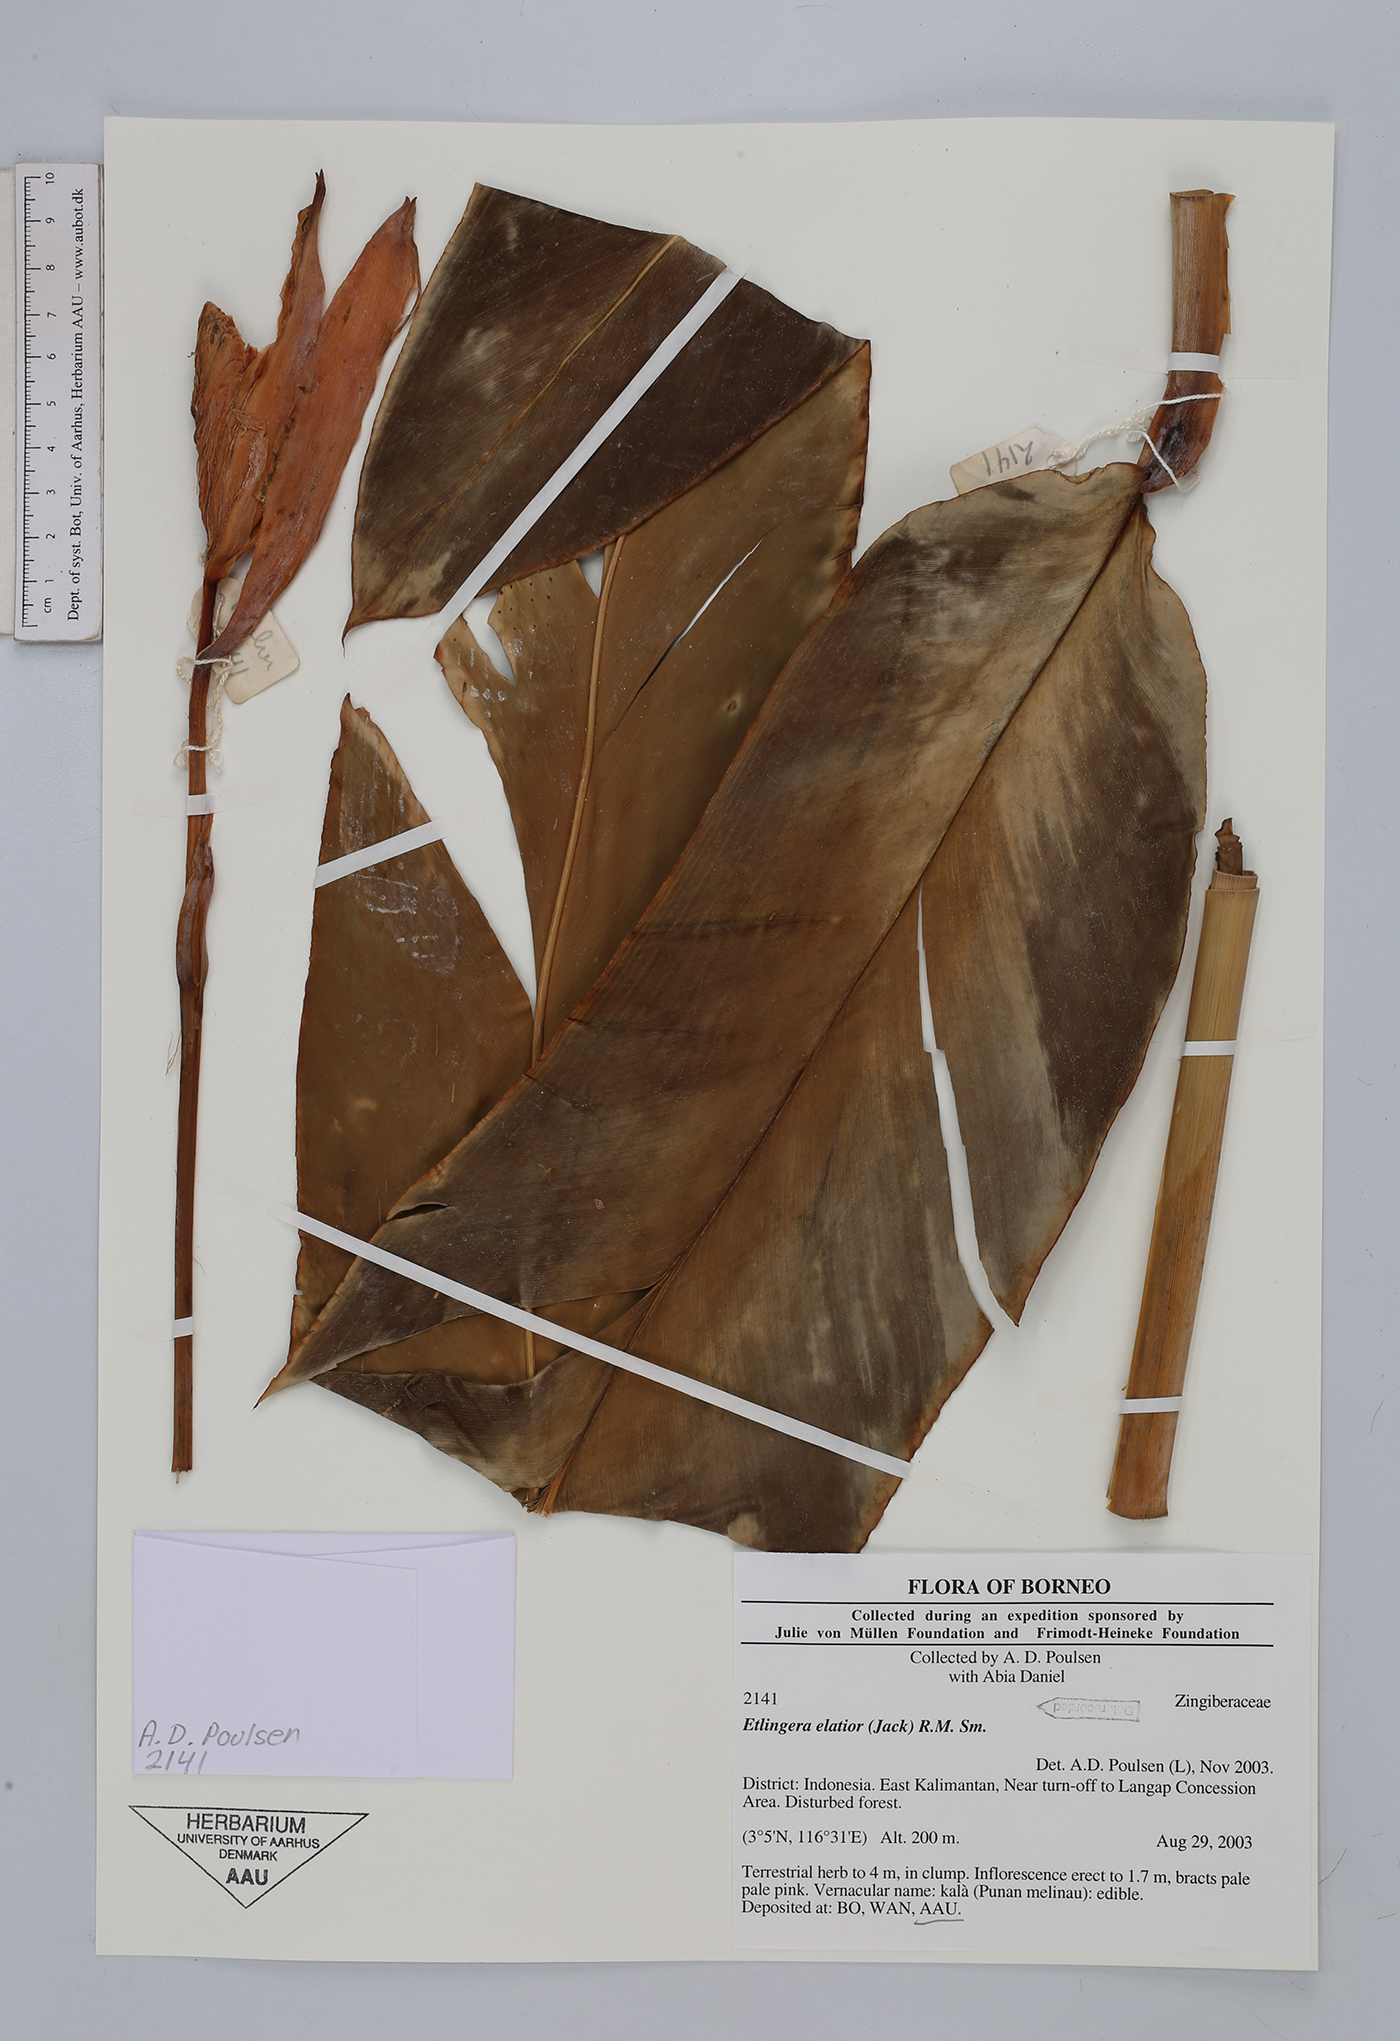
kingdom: Plantae
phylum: Tracheophyta
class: Liliopsida
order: Zingiberales
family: Zingiberaceae
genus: Etlingera
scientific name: Etlingera elatior
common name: Philippine waxflower
